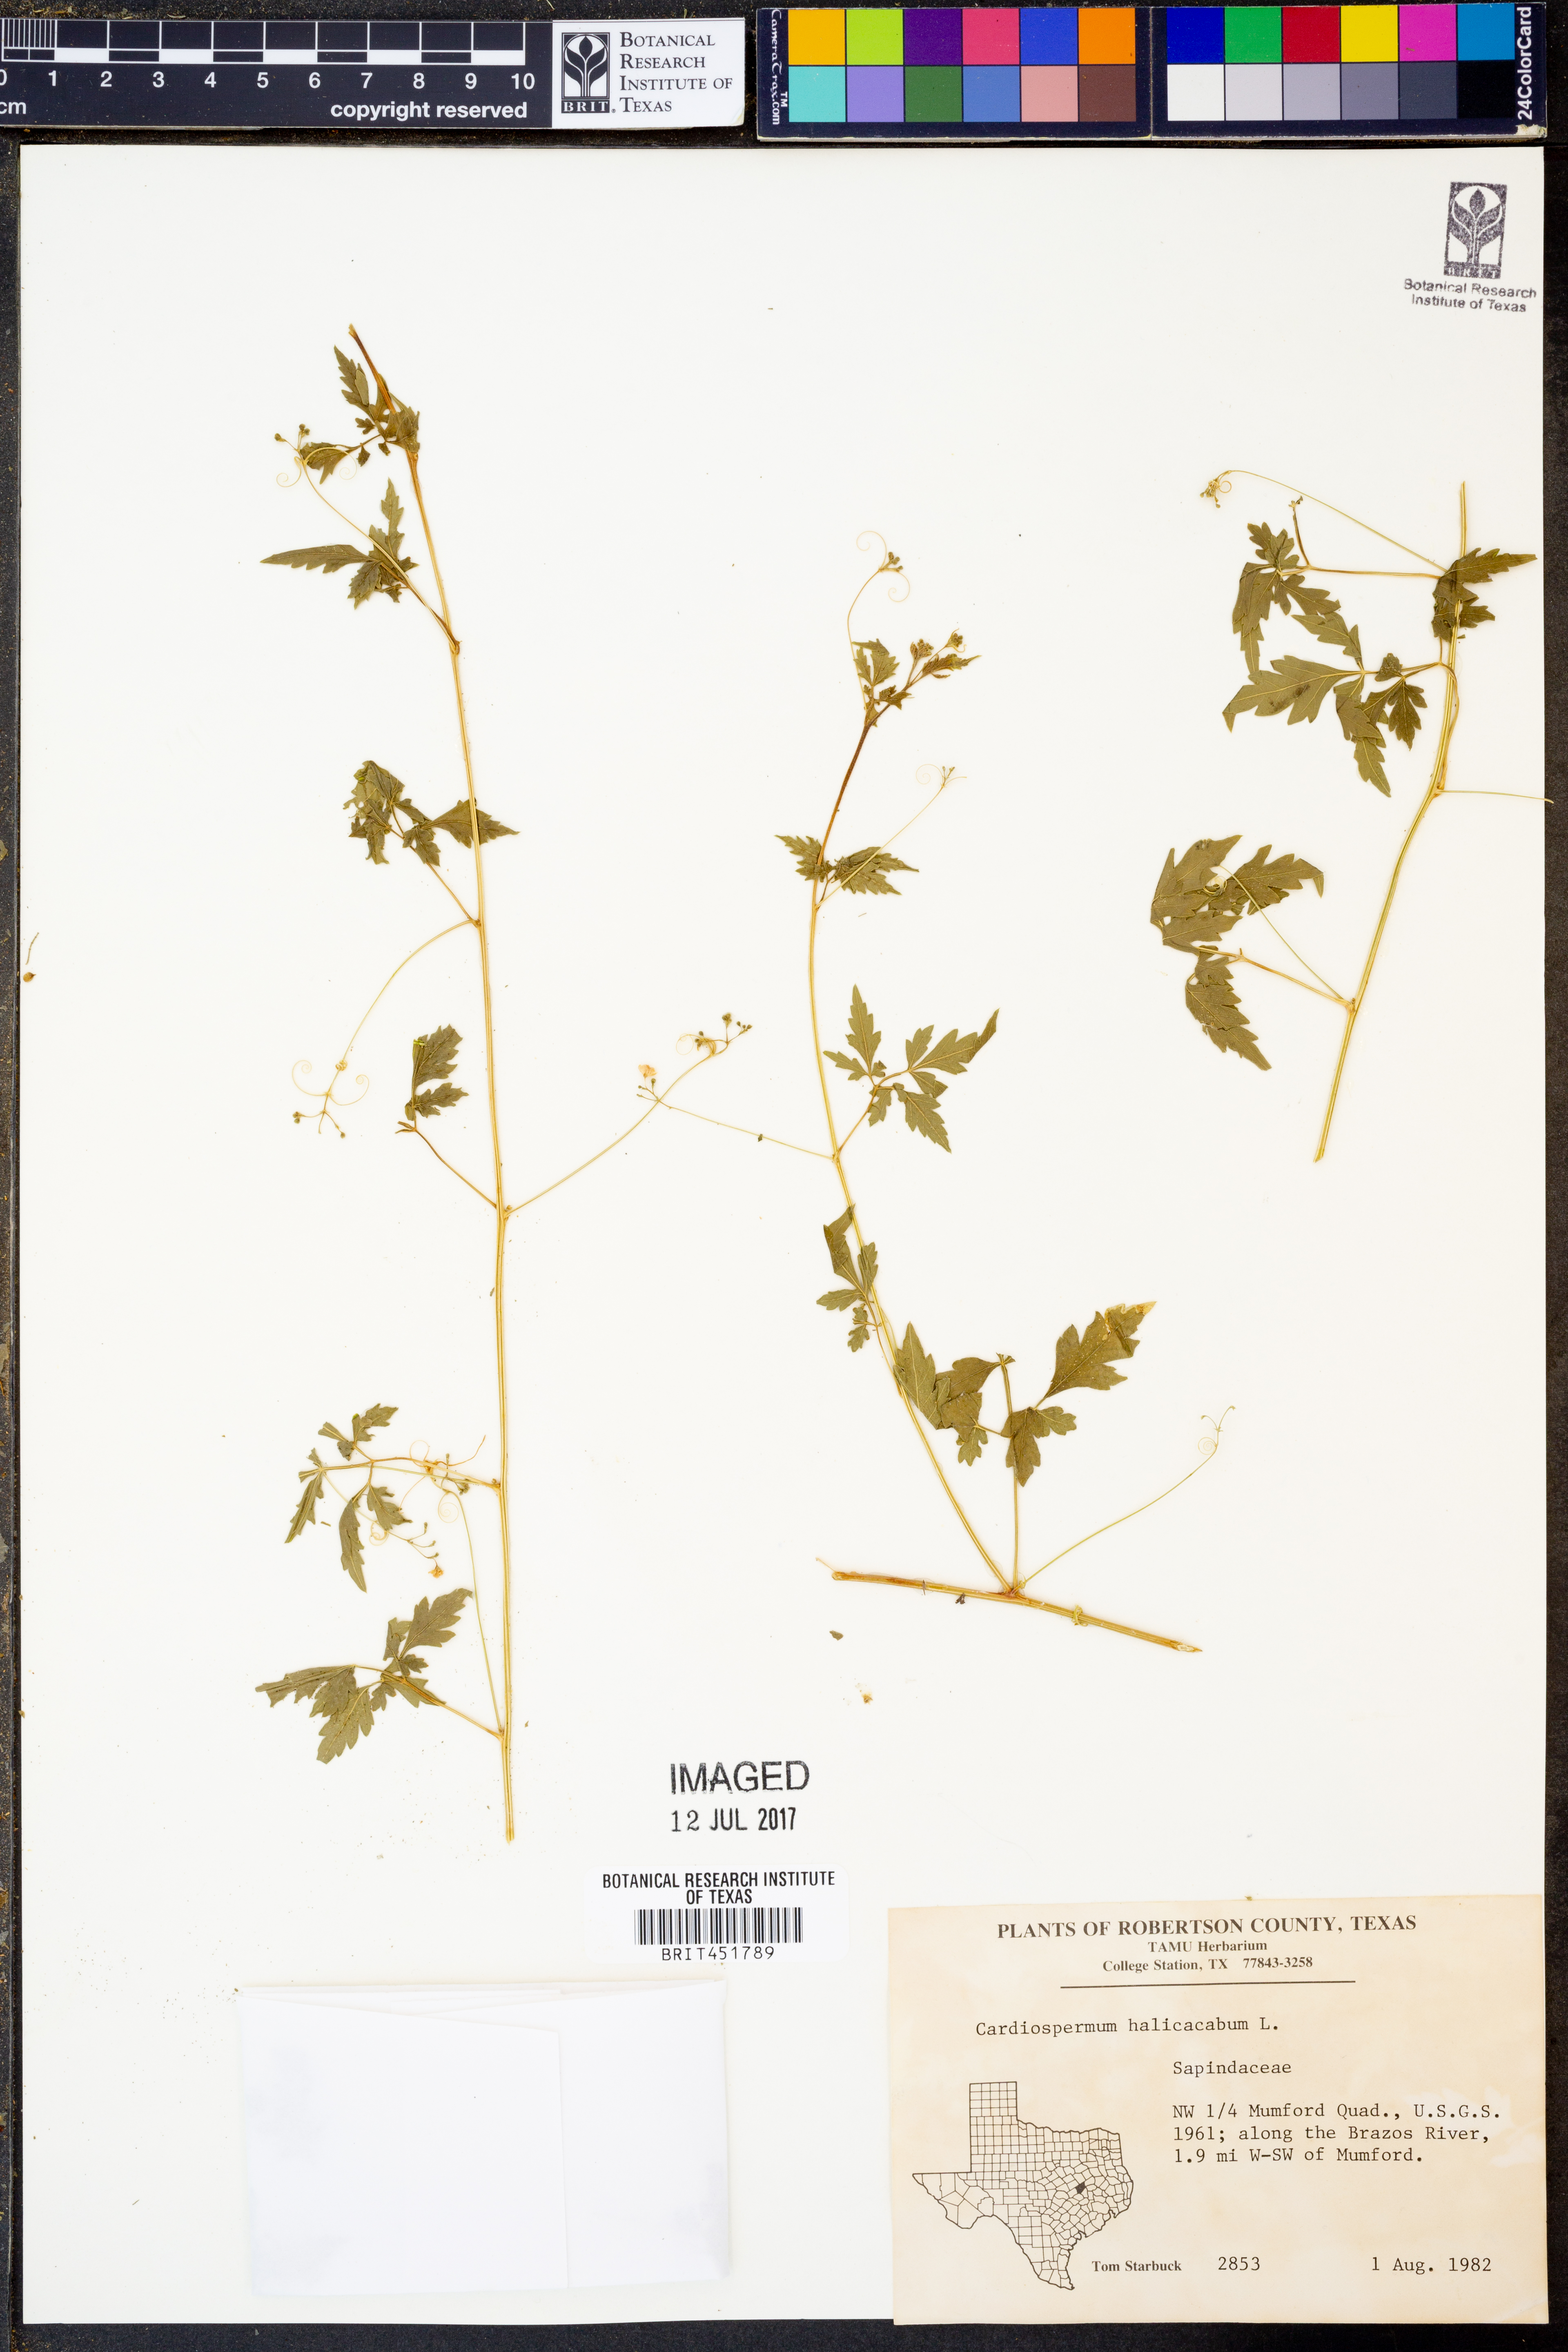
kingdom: Plantae
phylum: Tracheophyta
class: Magnoliopsida
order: Sapindales
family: Sapindaceae
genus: Cardiospermum
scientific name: Cardiospermum halicacabum
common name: Balloon vine
